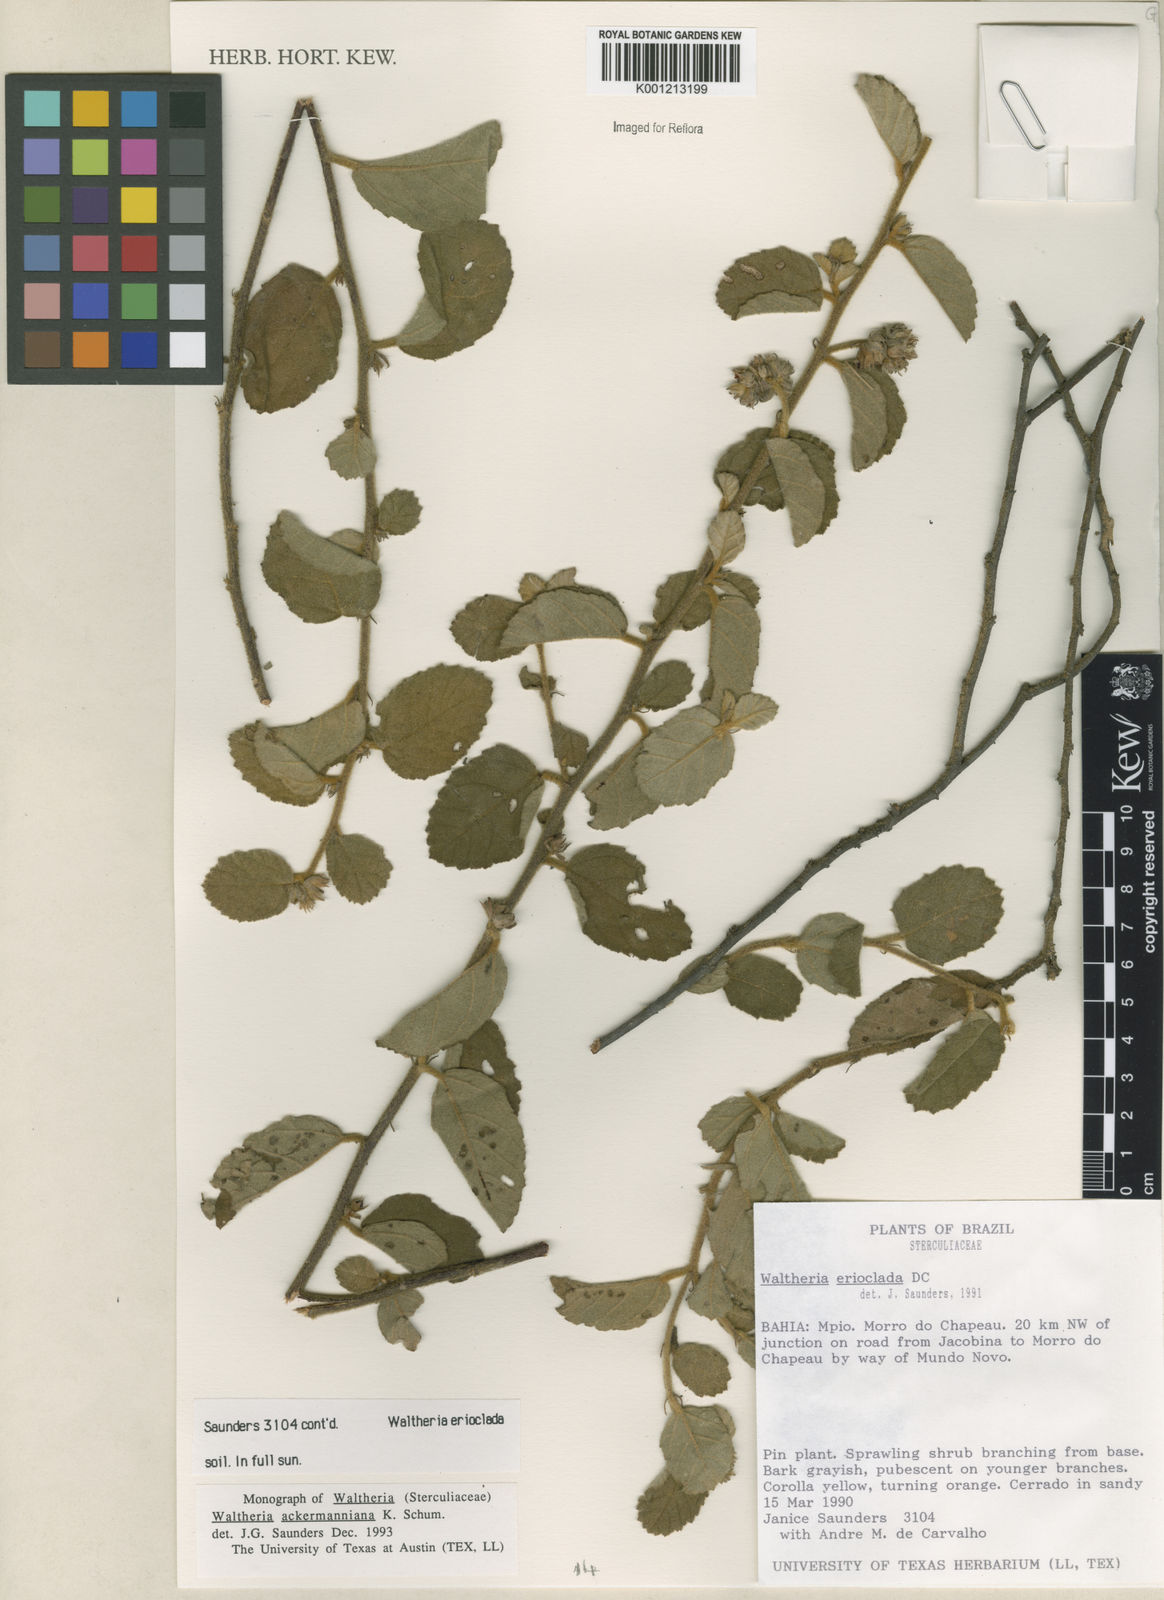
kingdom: Plantae
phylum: Tracheophyta
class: Magnoliopsida
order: Malvales
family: Malvaceae
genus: Waltheria
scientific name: Waltheria ackermanniana
